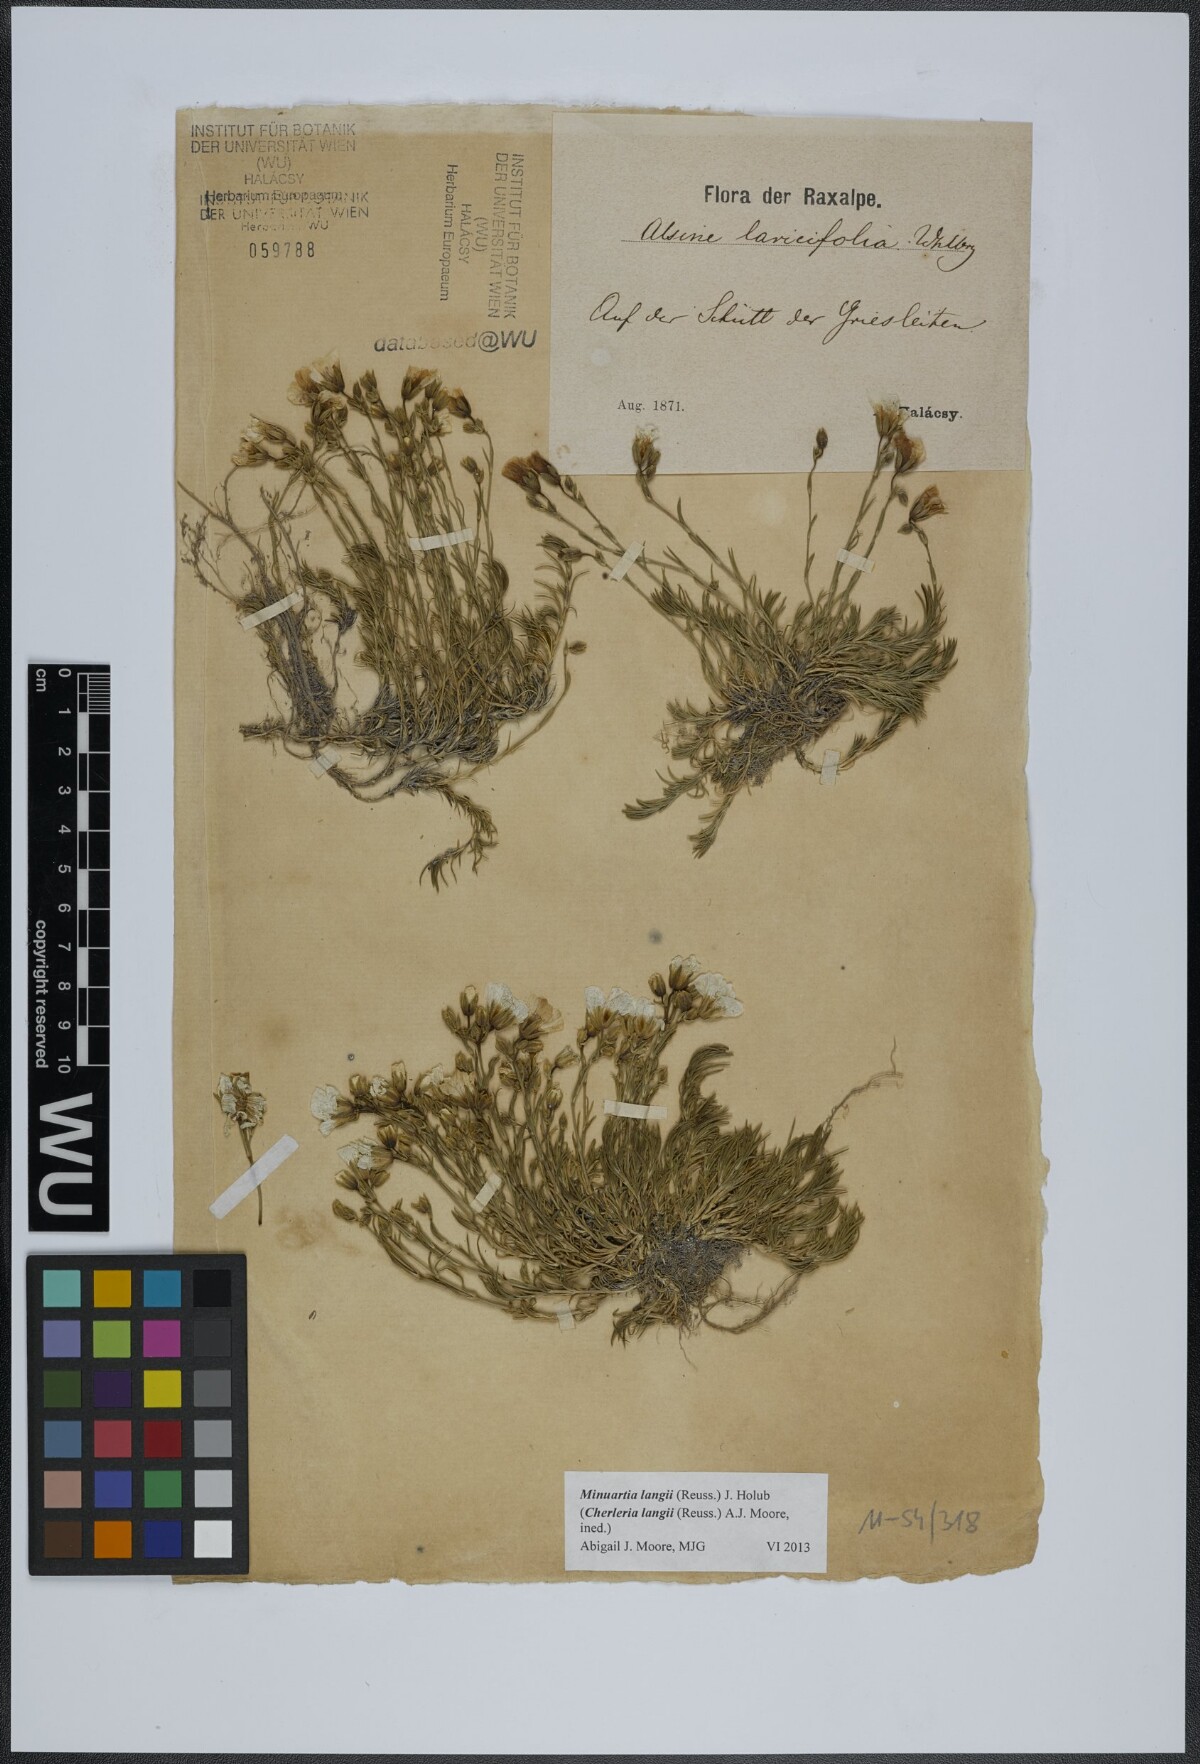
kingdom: Plantae
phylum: Tracheophyta
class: Magnoliopsida
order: Caryophyllales
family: Caryophyllaceae
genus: Cherleria
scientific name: Cherleria langii
